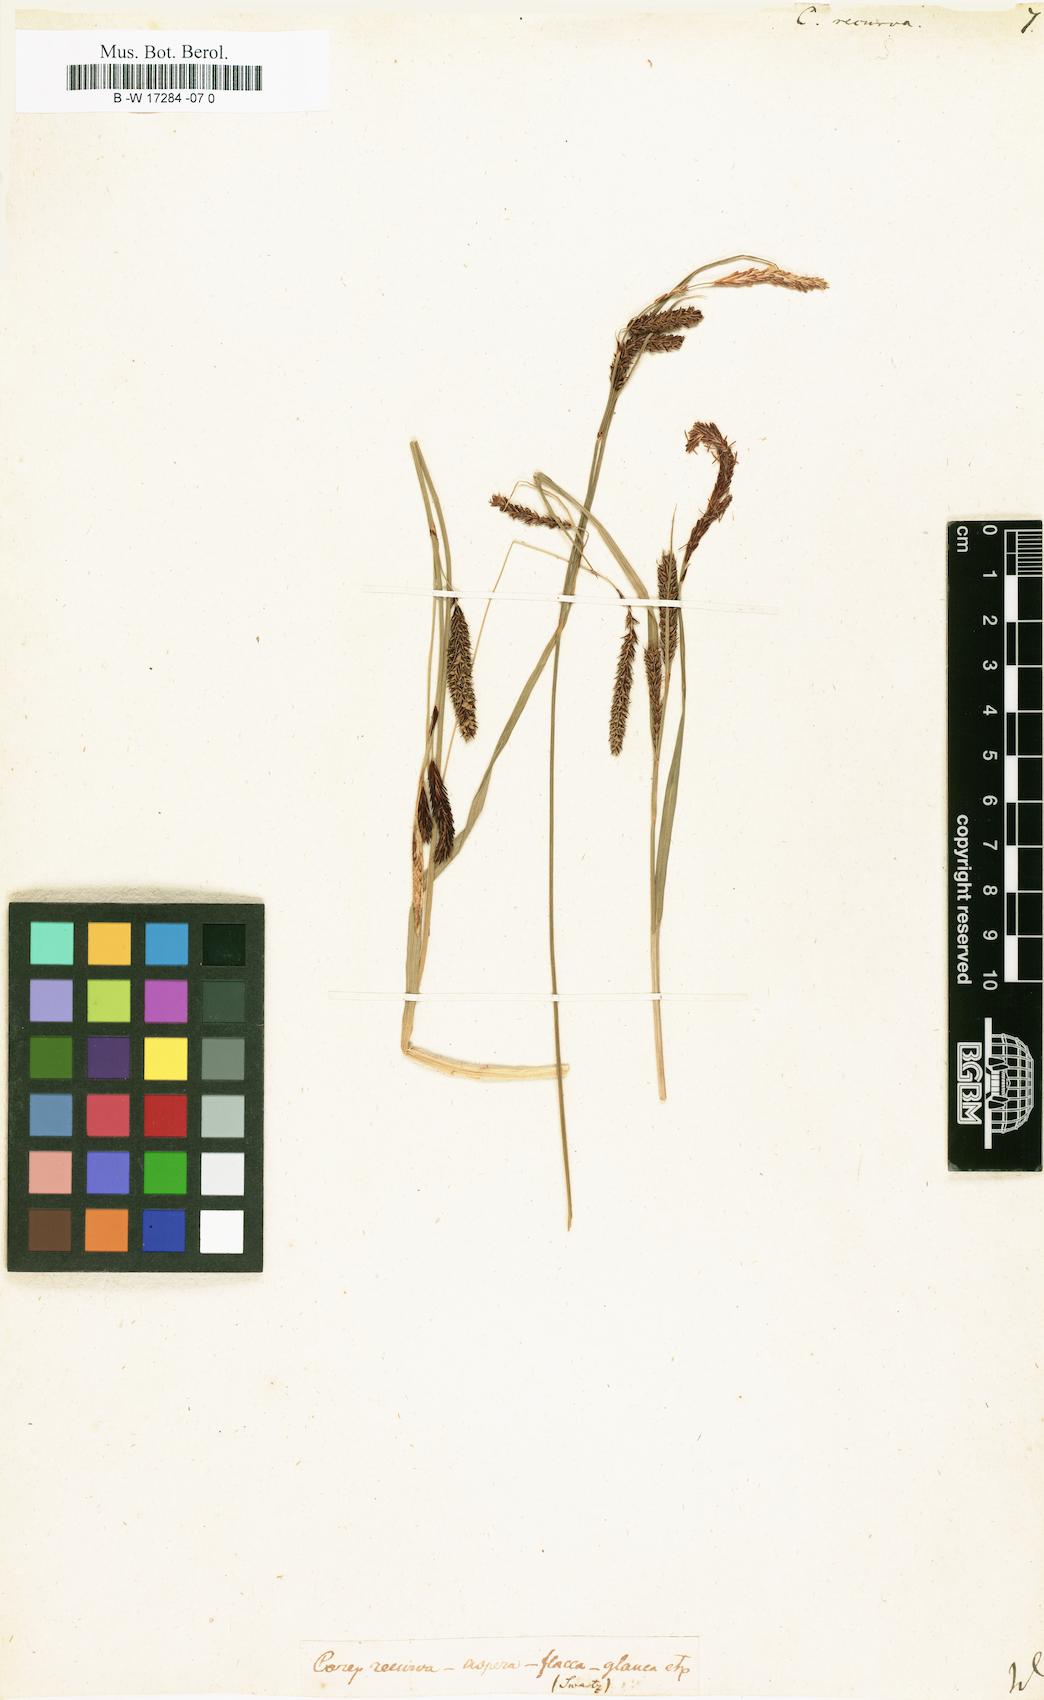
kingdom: Plantae
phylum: Tracheophyta
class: Liliopsida
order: Poales
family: Cyperaceae
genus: Carex
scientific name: Carex
